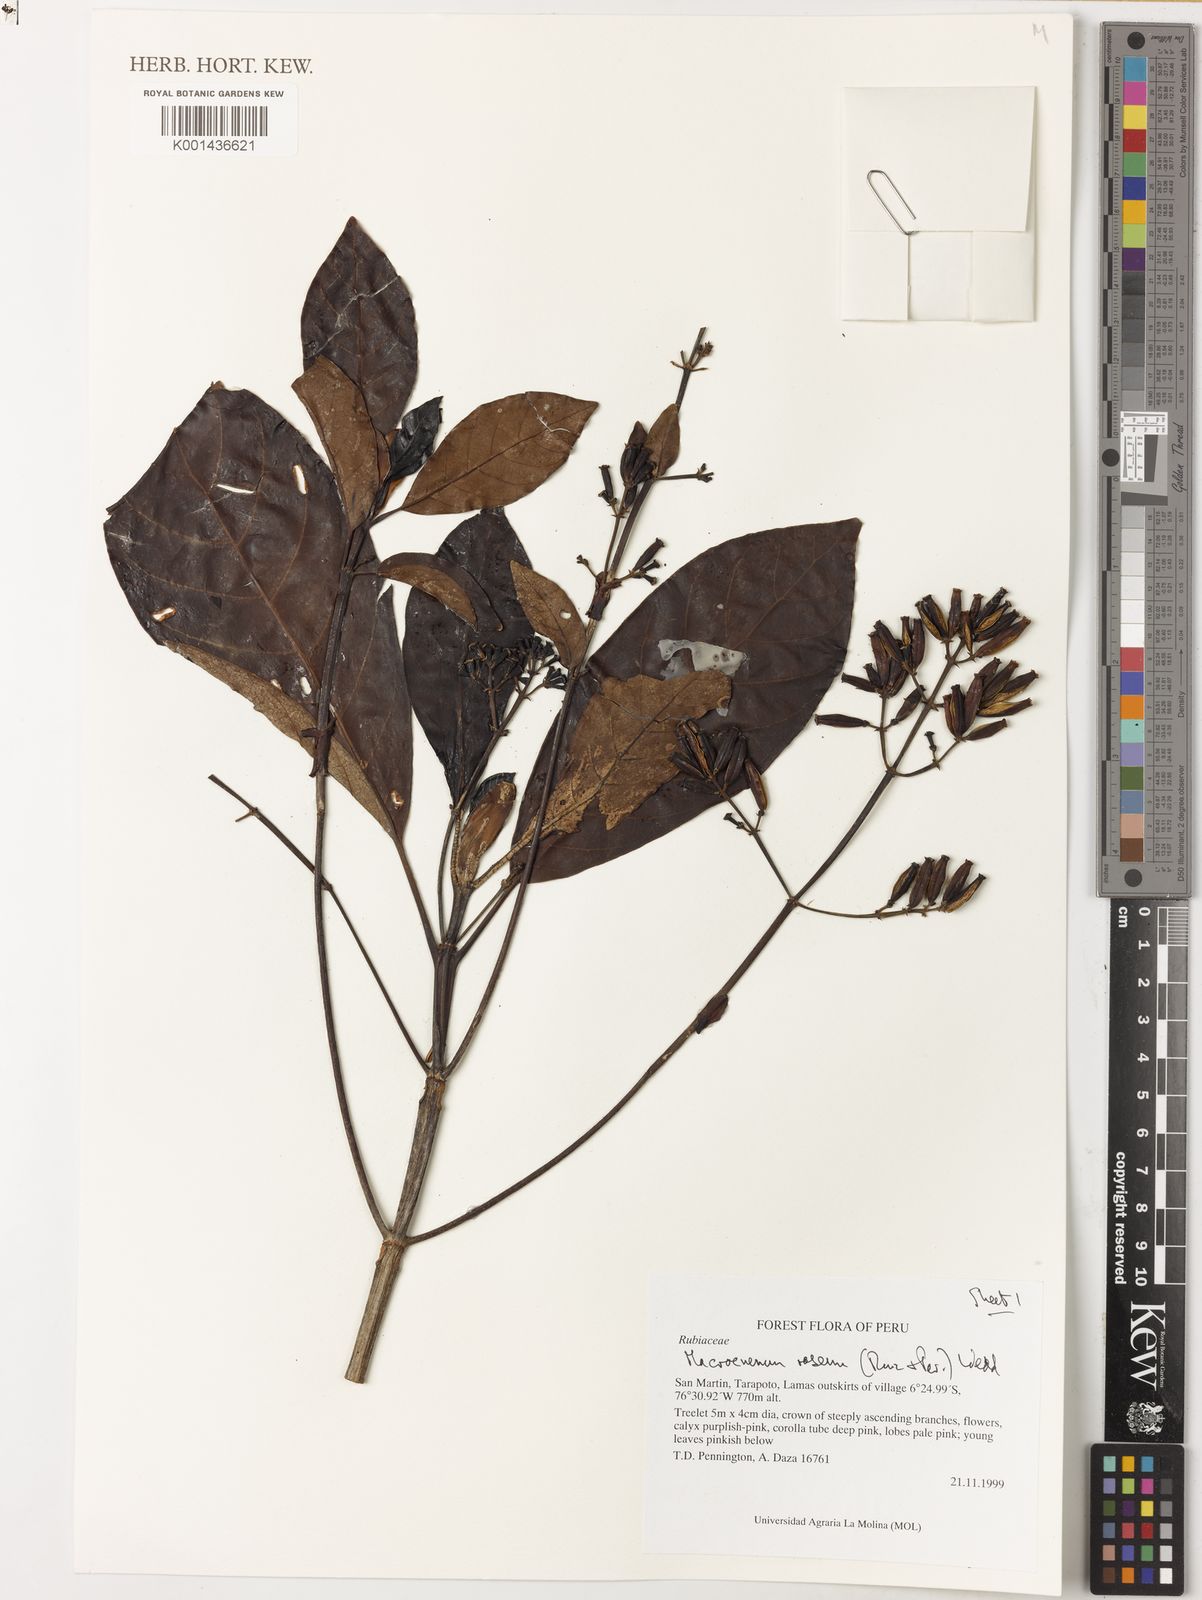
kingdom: Plantae
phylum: Tracheophyta
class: Magnoliopsida
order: Gentianales
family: Rubiaceae
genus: Macrocnemum
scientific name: Macrocnemum roseum
